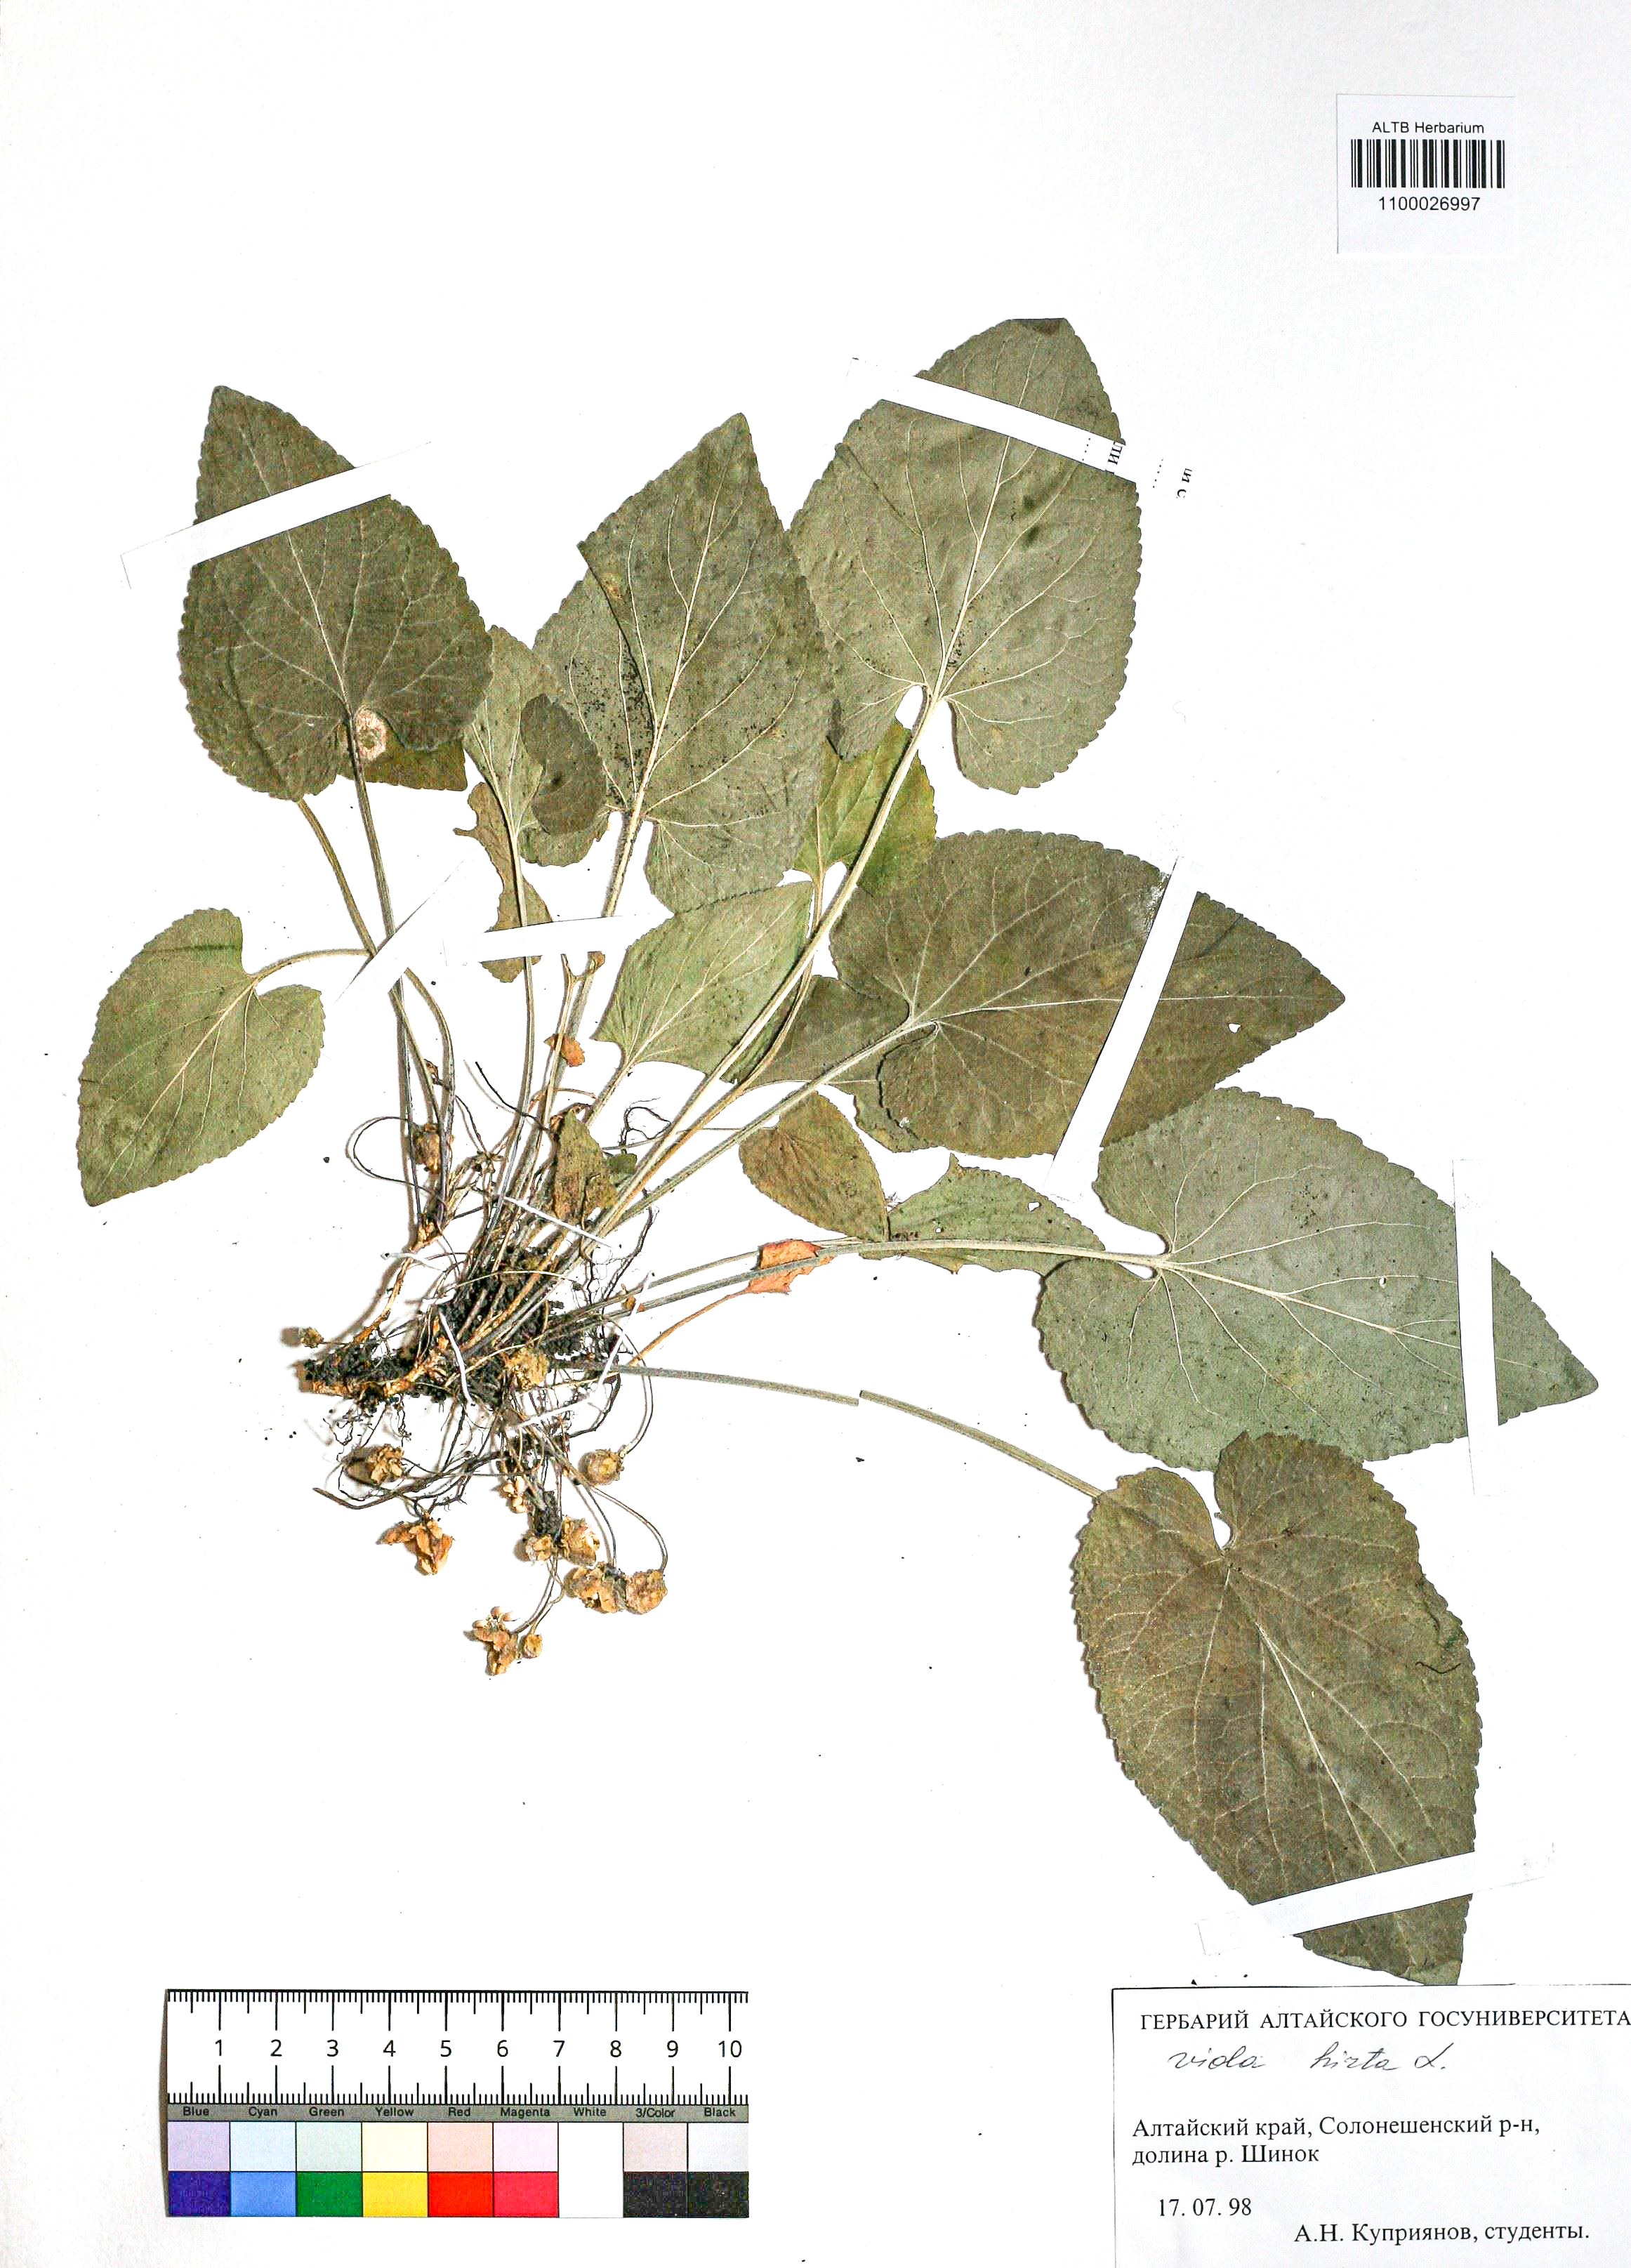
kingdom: Plantae
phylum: Tracheophyta
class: Magnoliopsida
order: Malpighiales
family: Violaceae
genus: Viola
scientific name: Viola hirta
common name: Hairy violet
